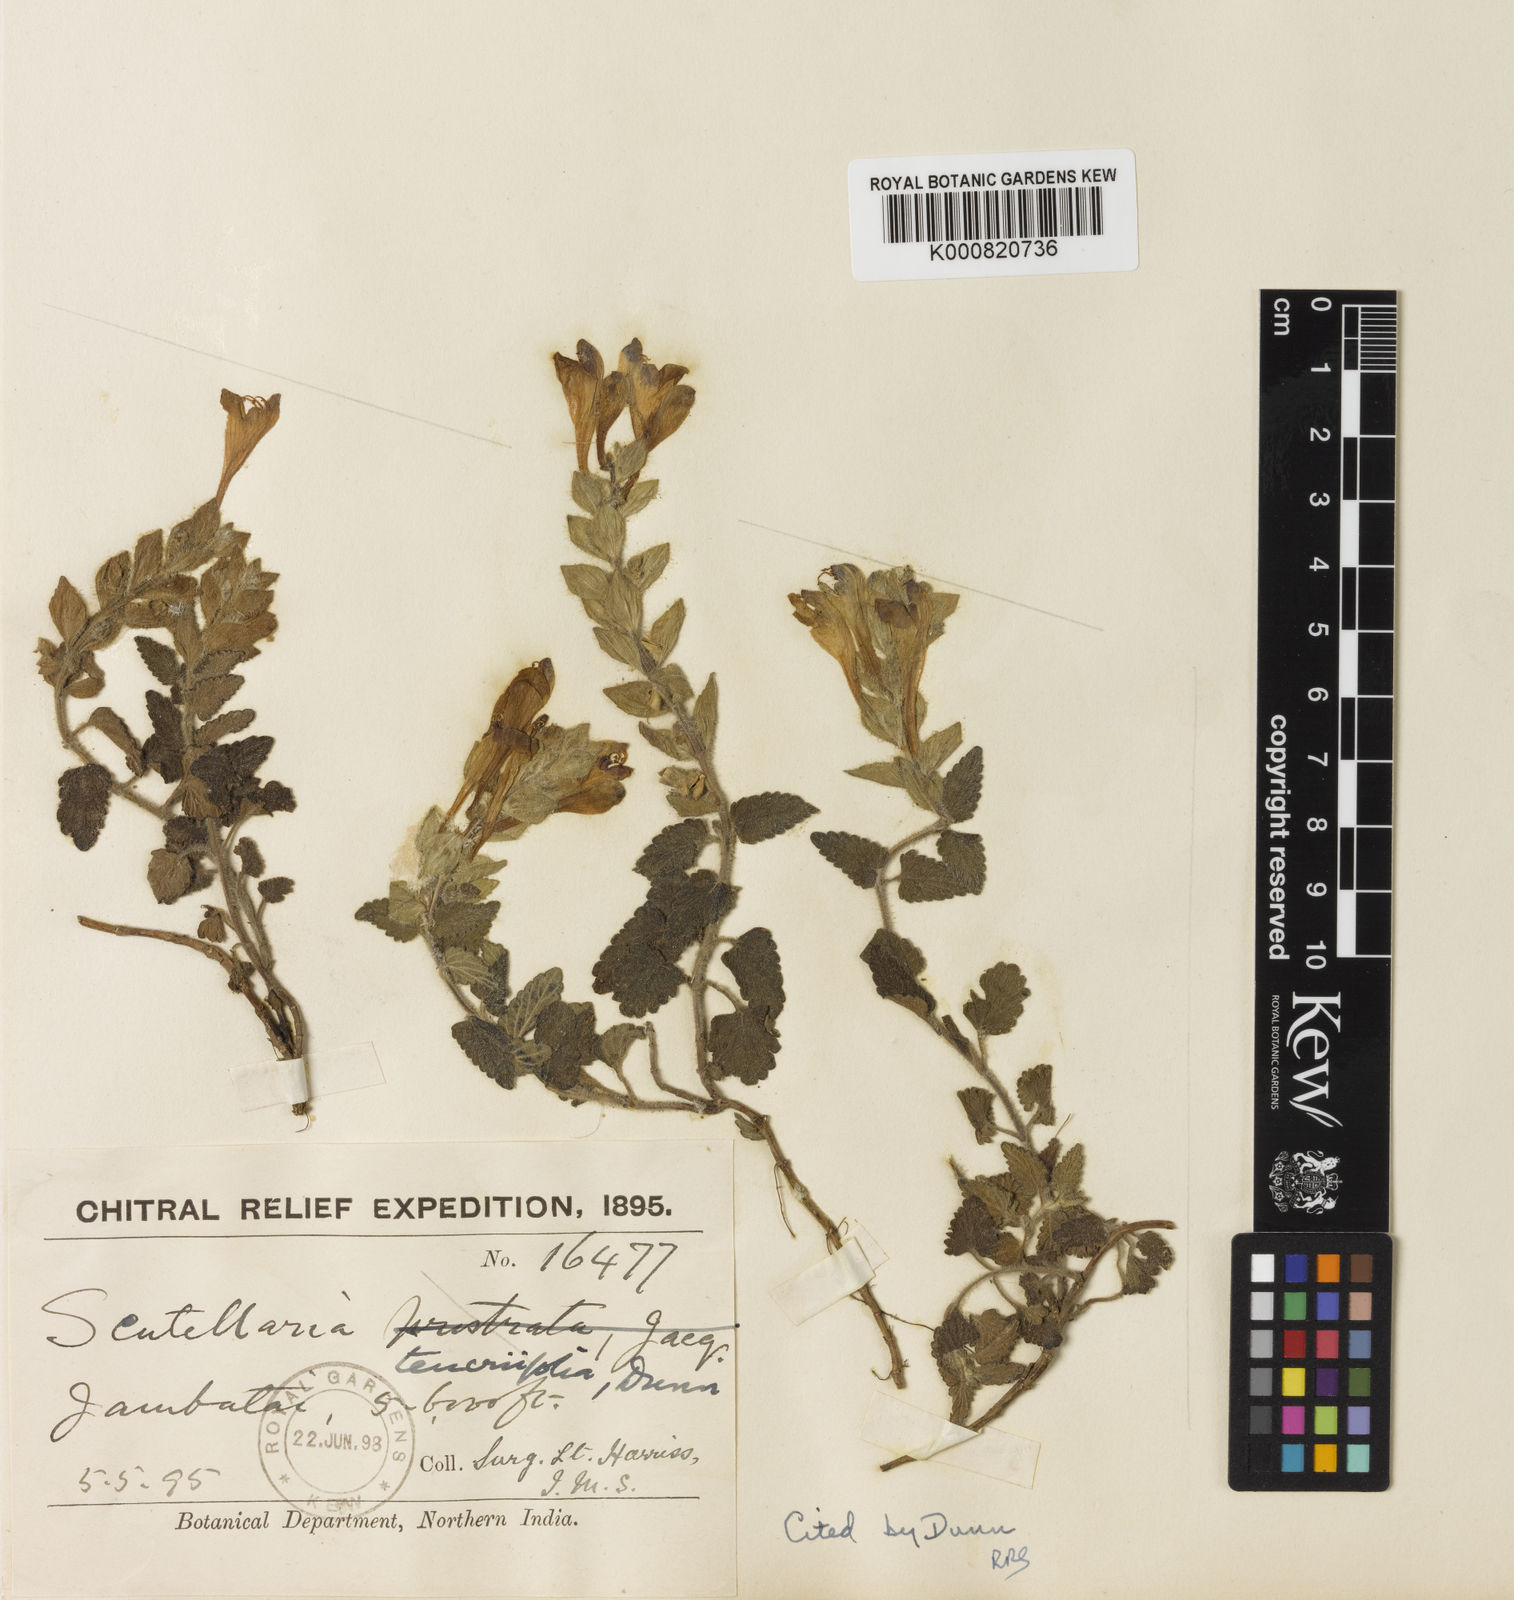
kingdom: Plantae
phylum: Tracheophyta
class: Magnoliopsida
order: Lamiales
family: Lamiaceae
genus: Scutellaria
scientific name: Scutellaria chamaedrifolia
